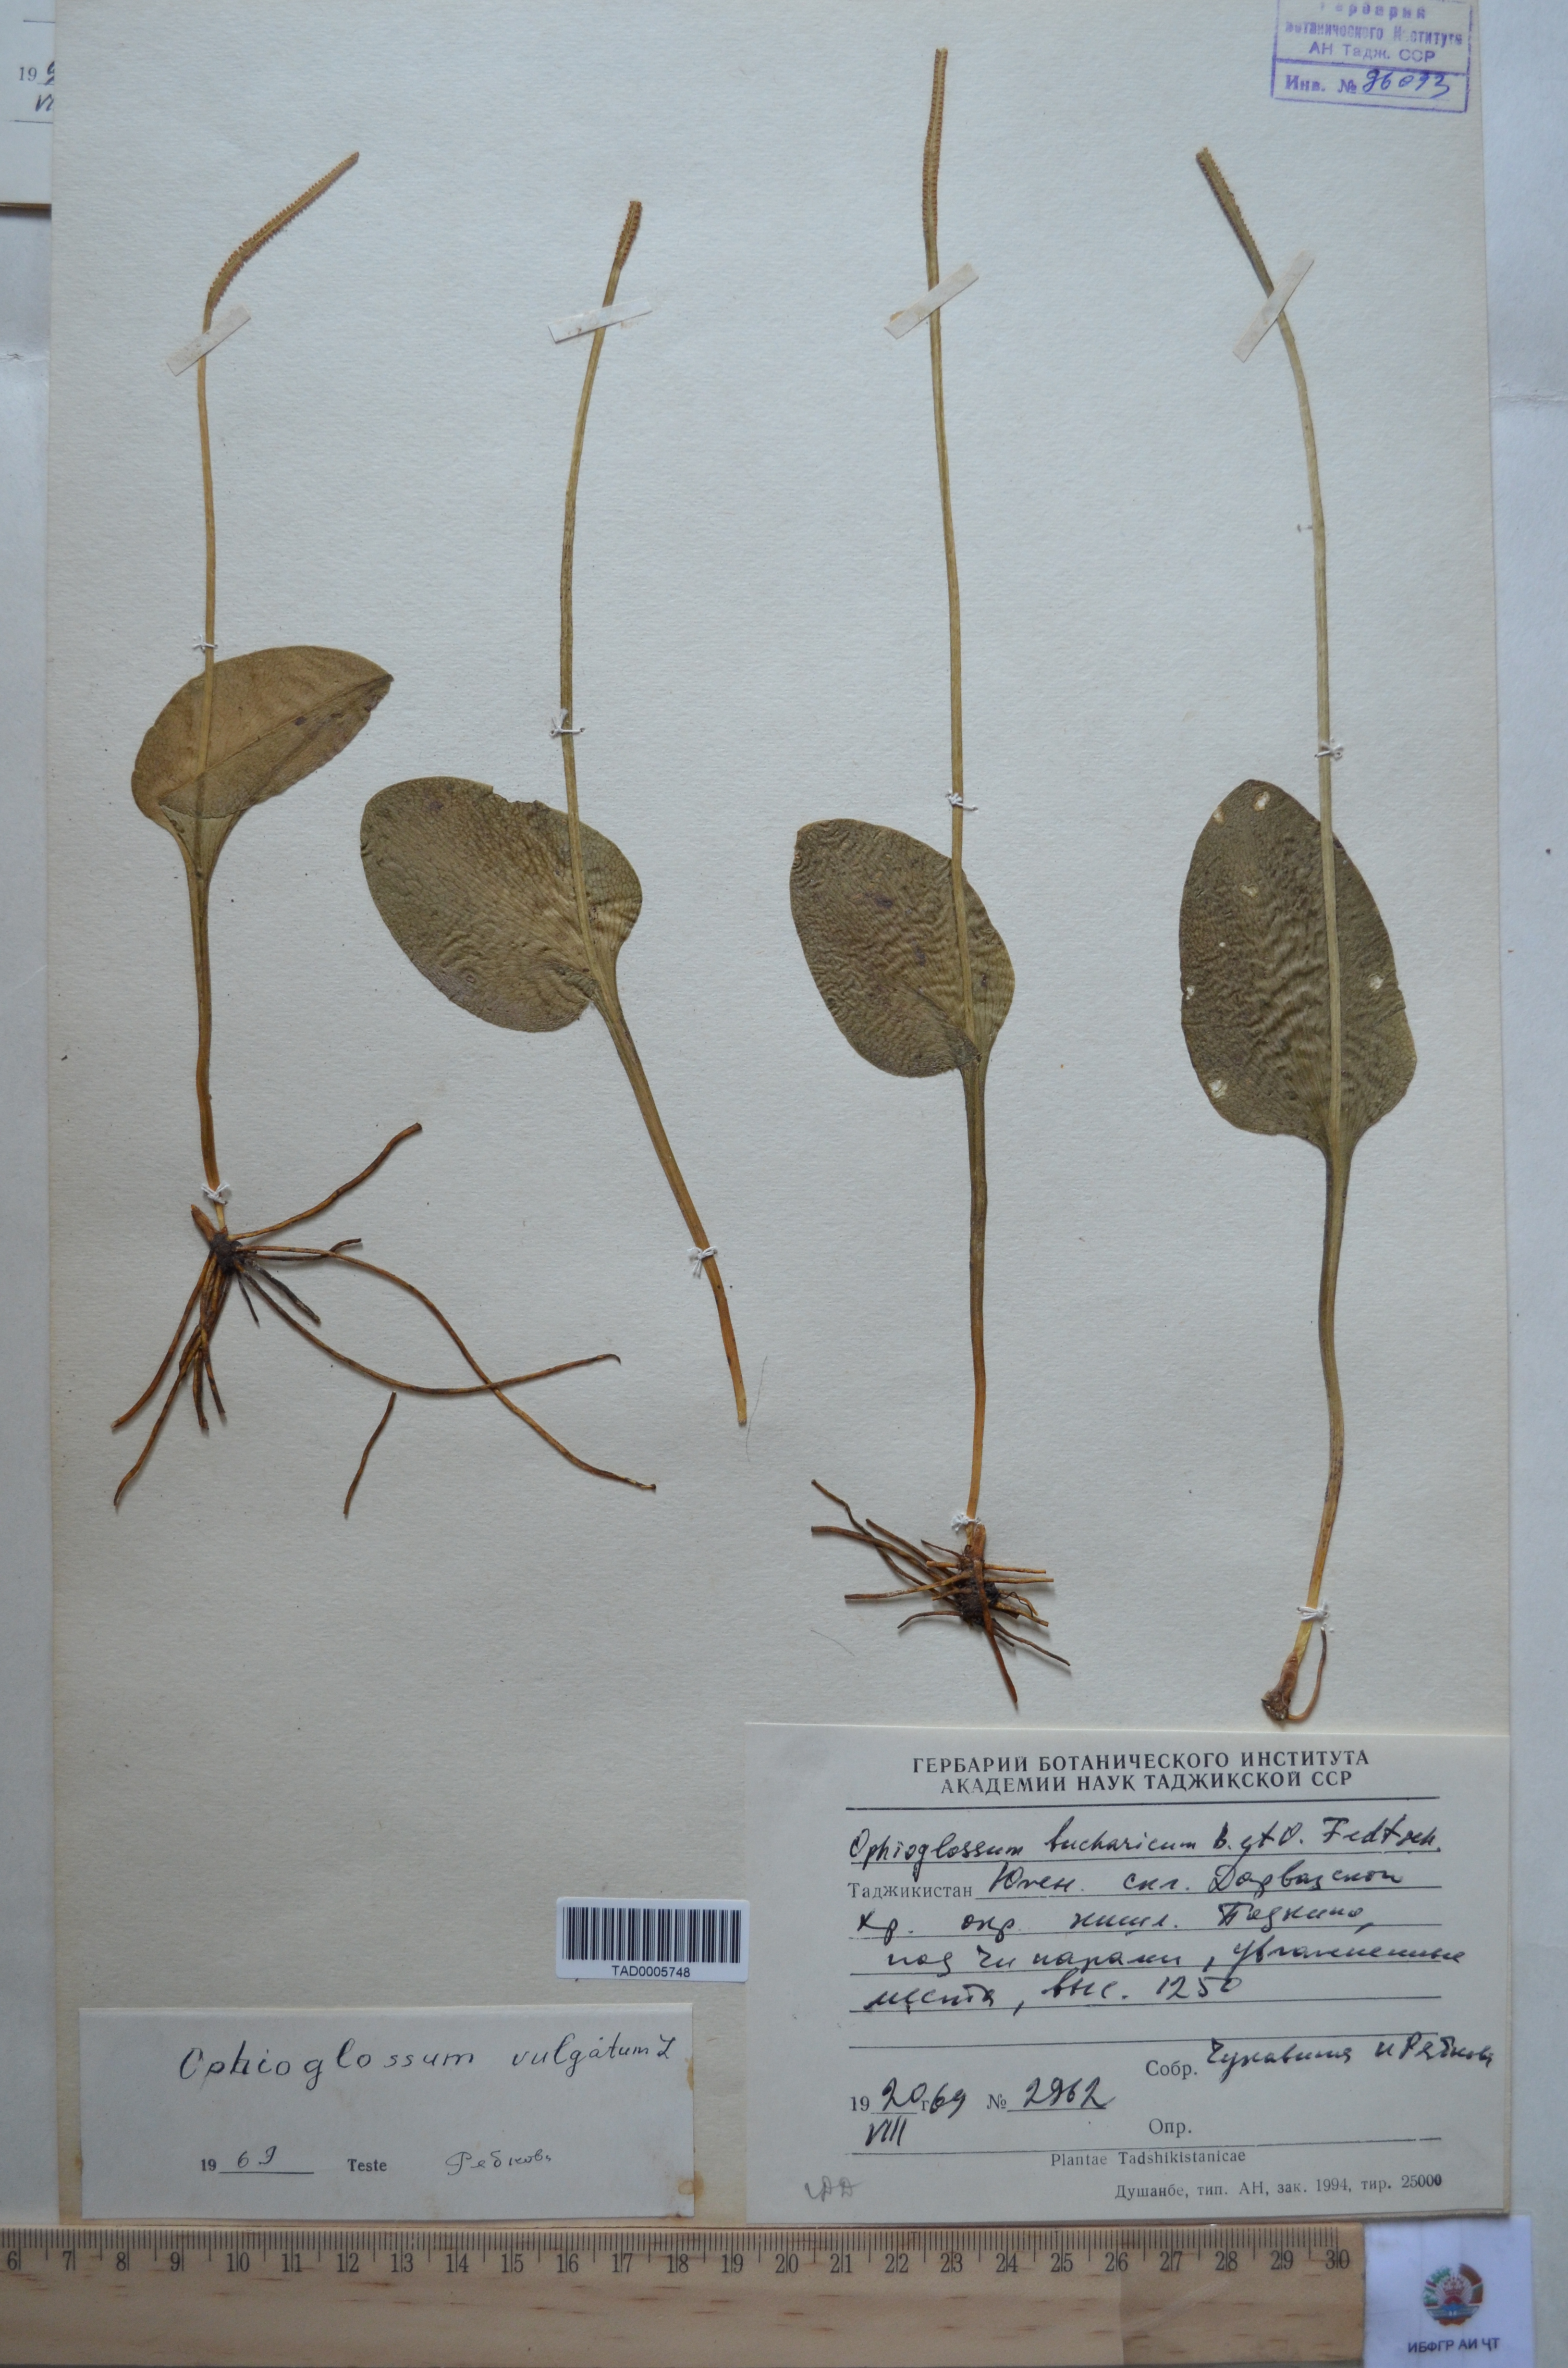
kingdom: Plantae
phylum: Tracheophyta
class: Polypodiopsida
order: Ophioglossales
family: Ophioglossaceae
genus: Ophioglossum
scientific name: Ophioglossum vulgatum
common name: Adder's-tongue
